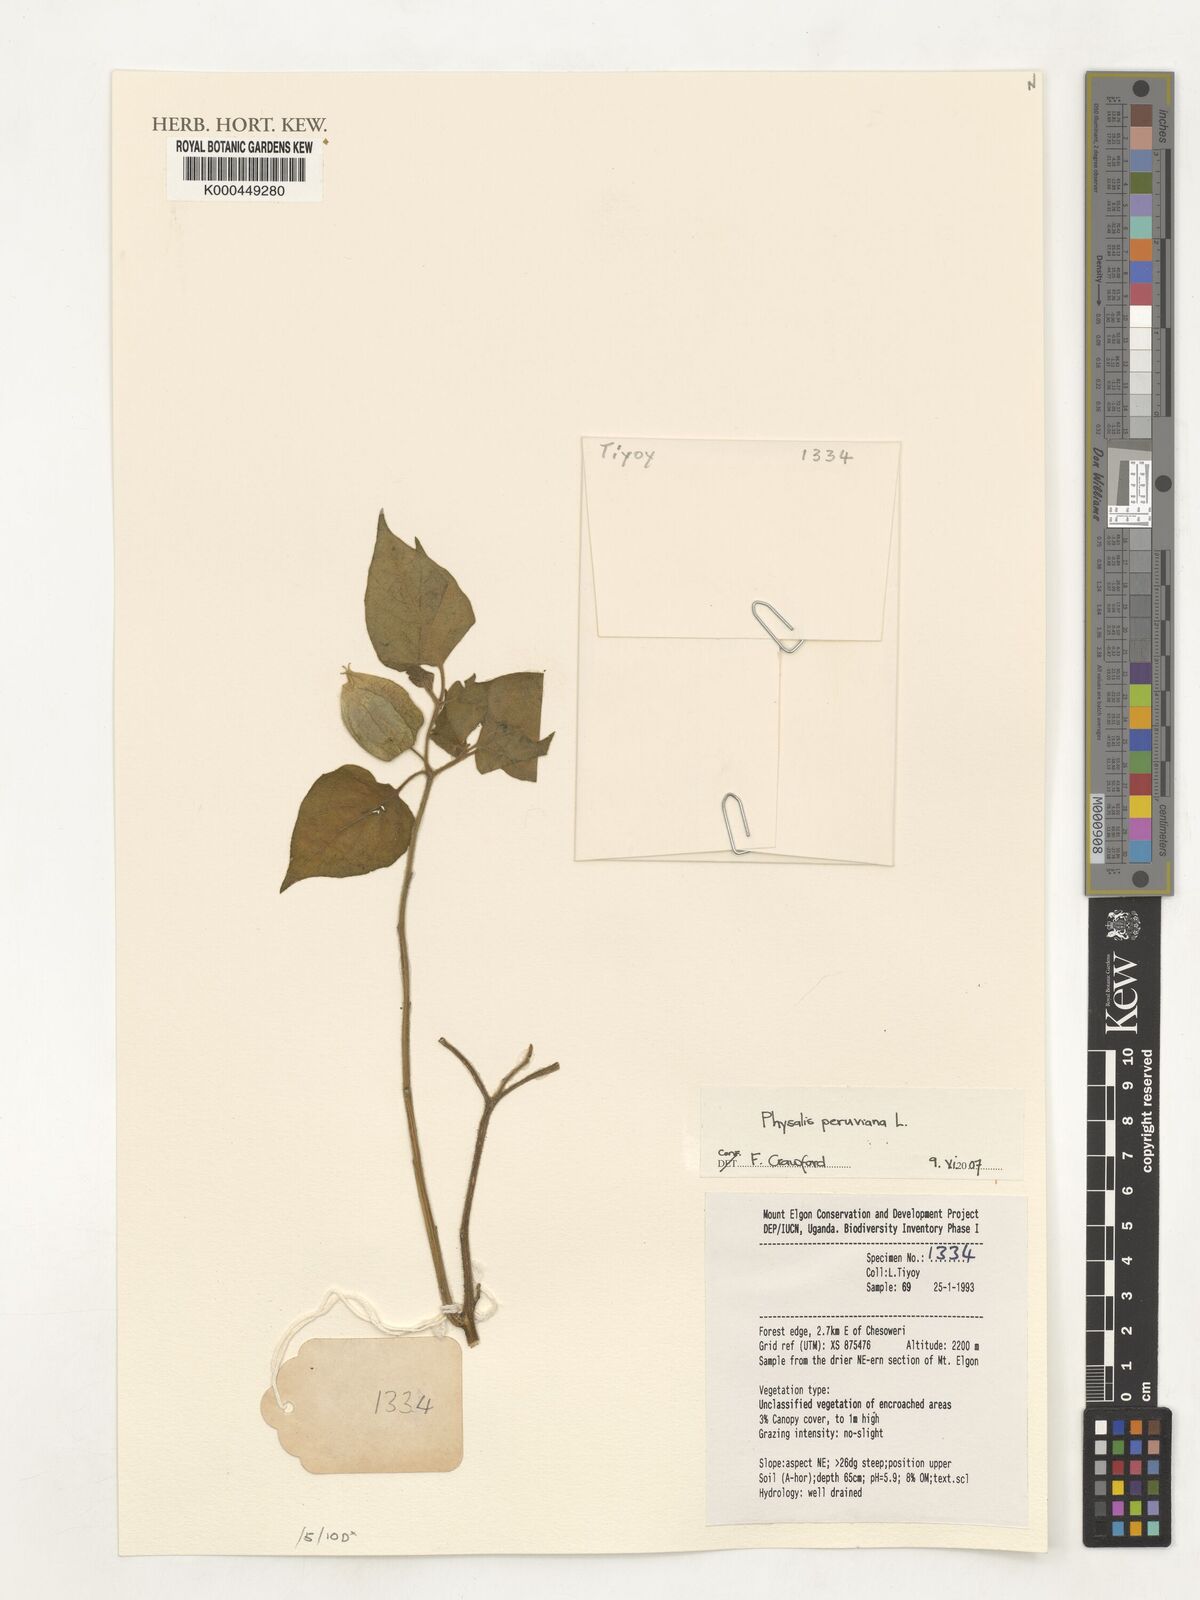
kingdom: Plantae
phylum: Tracheophyta
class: Magnoliopsida
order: Solanales
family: Solanaceae
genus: Physalis
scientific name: Physalis peruviana
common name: Cape-gooseberry
